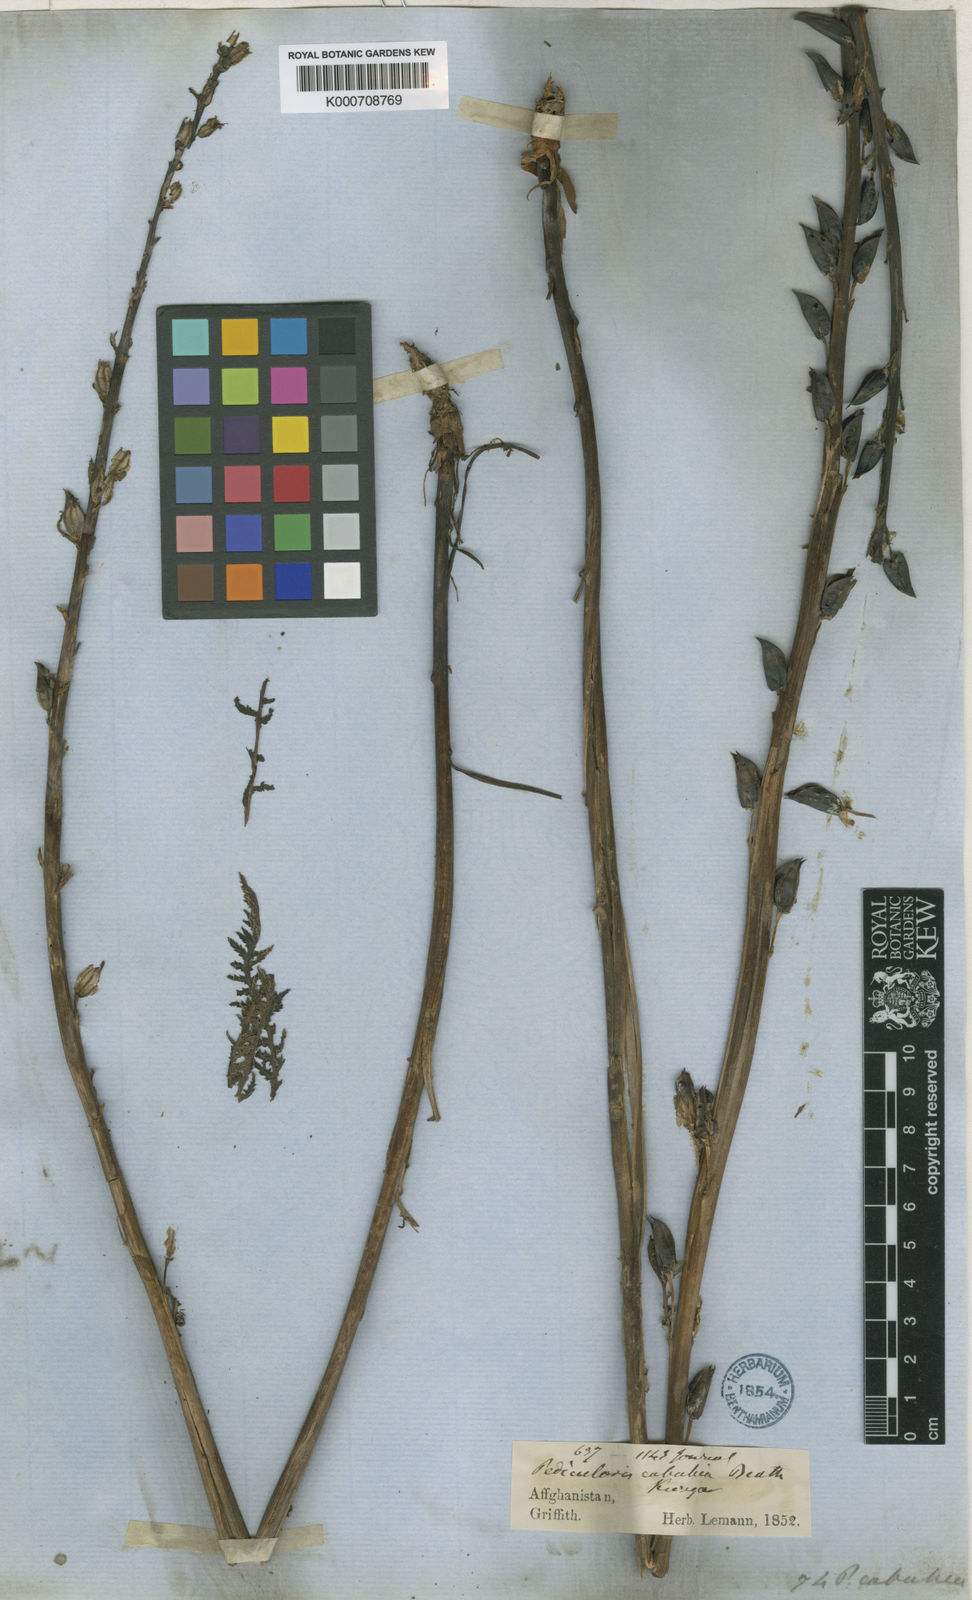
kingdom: Plantae
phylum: Tracheophyta
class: Magnoliopsida
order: Lamiales
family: Orobanchaceae
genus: Pedicularis
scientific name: Pedicularis cabulica
